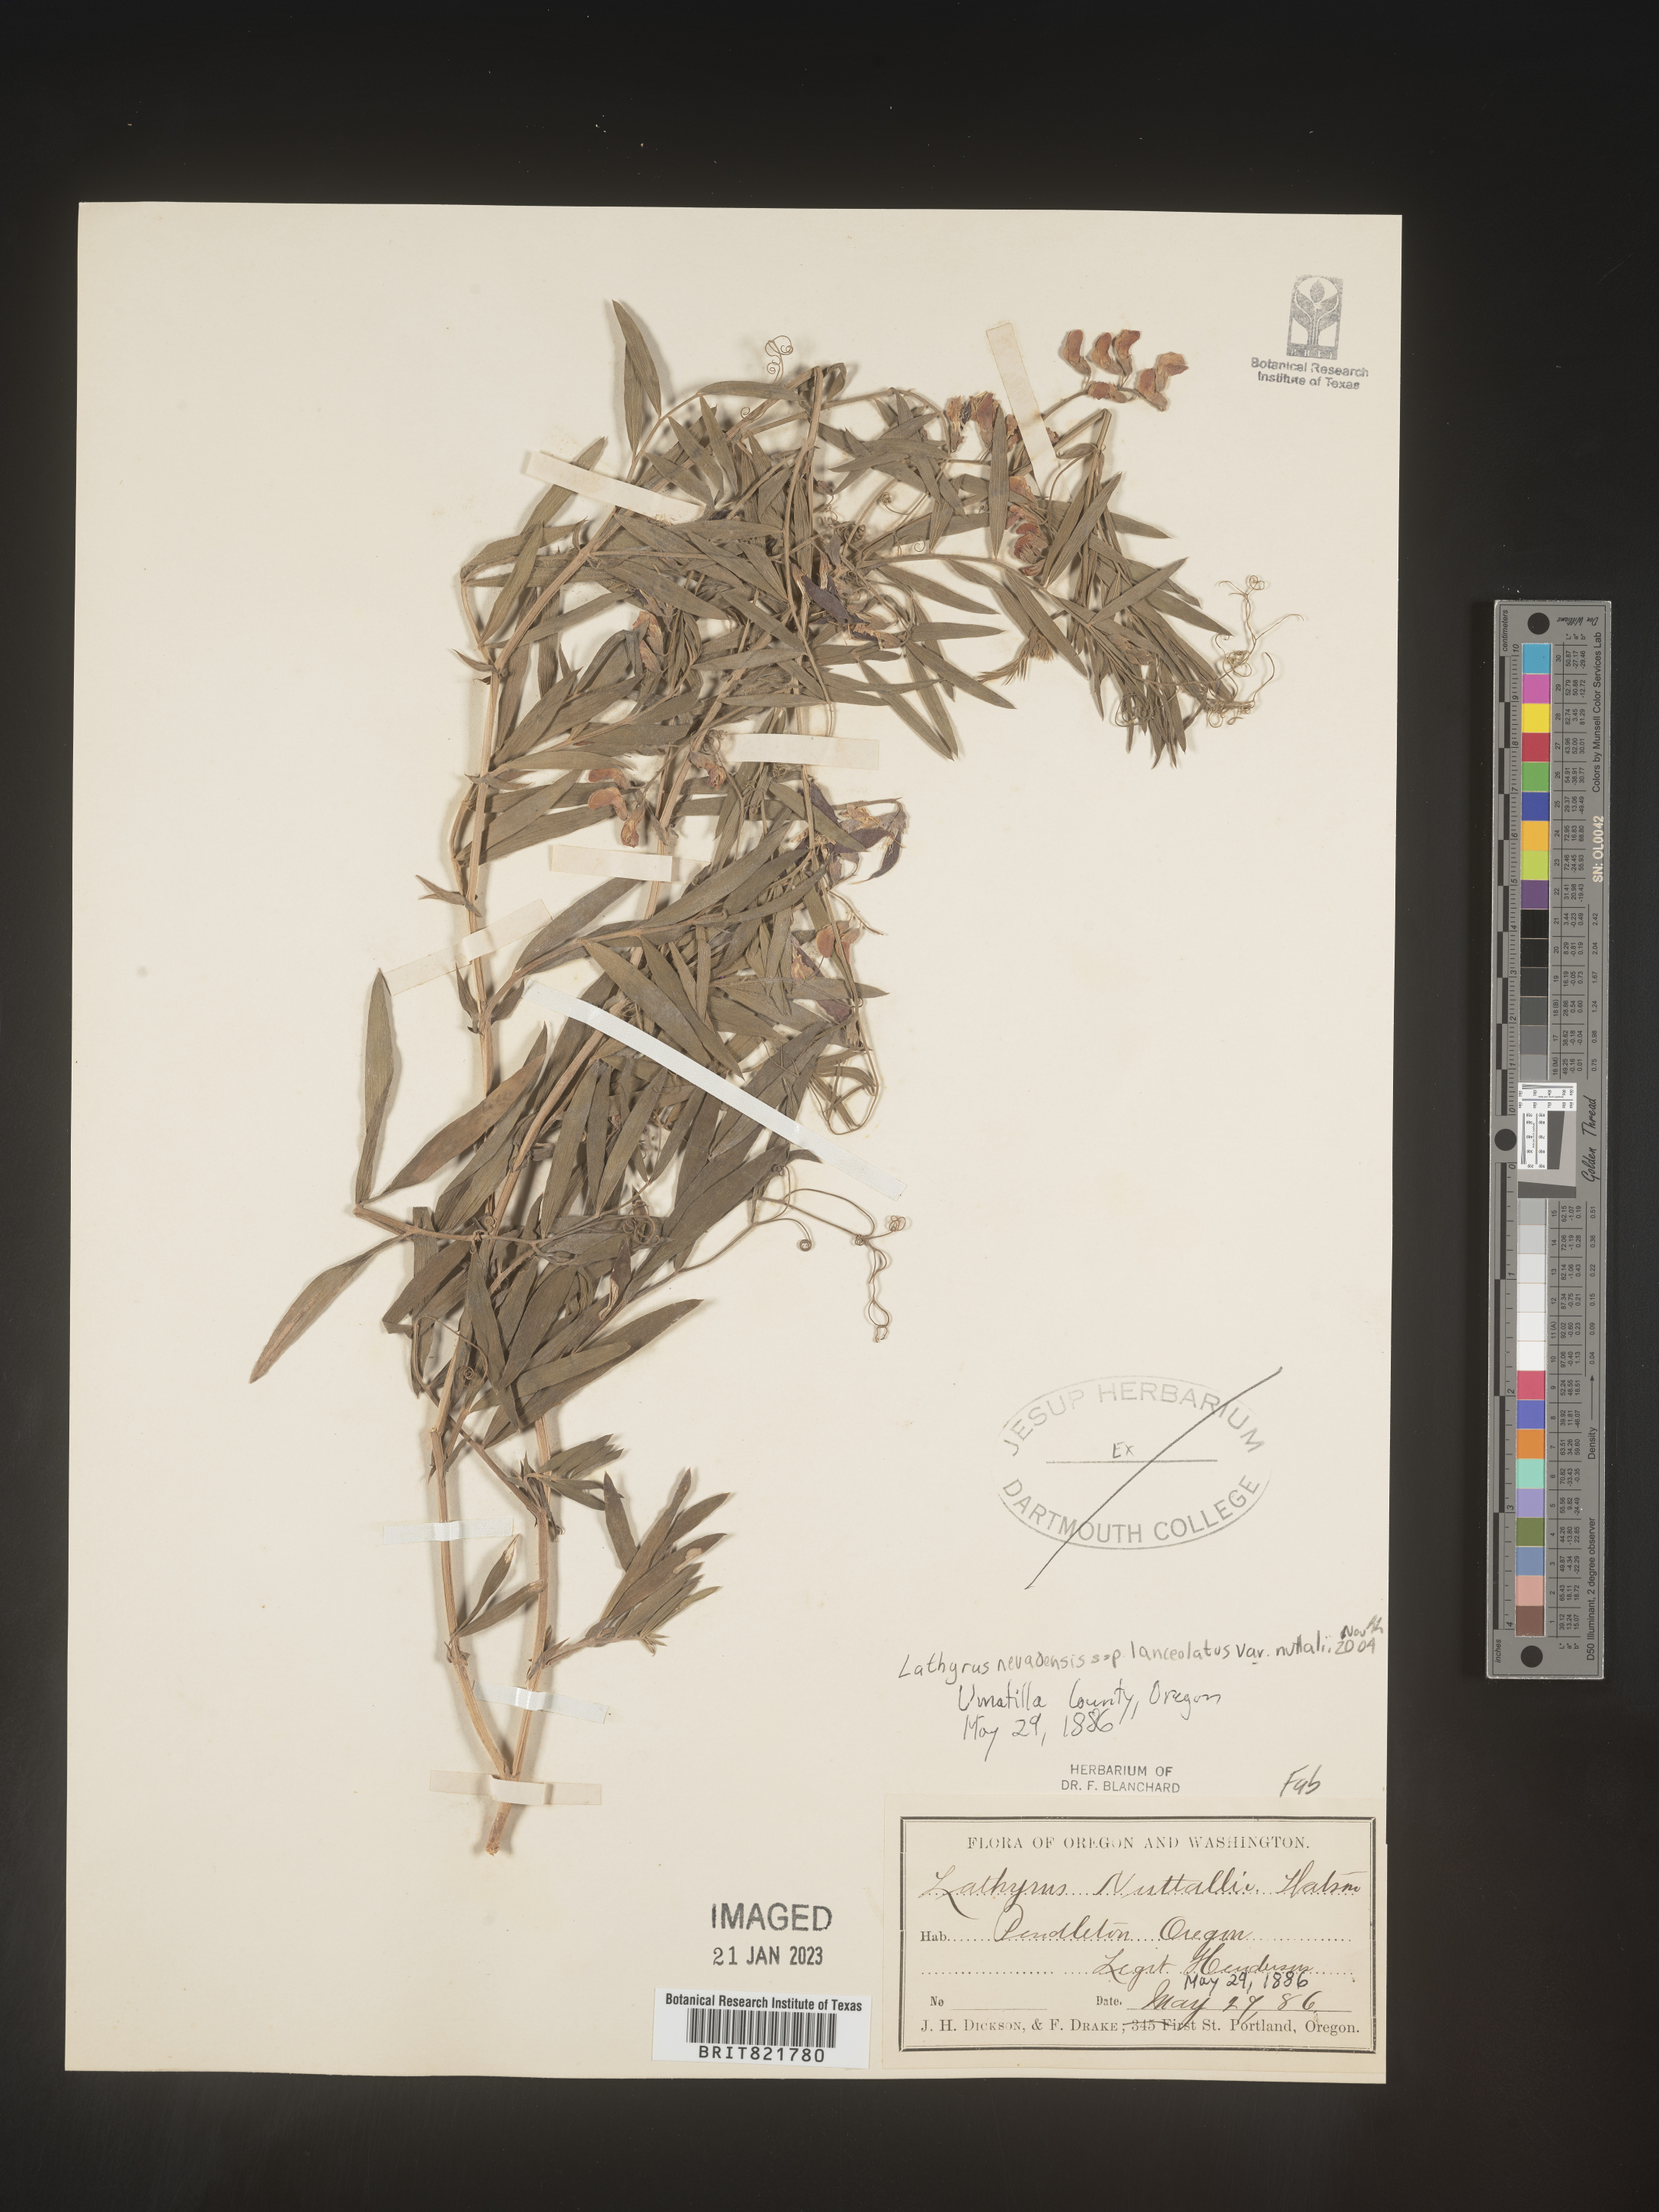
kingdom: Plantae
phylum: Tracheophyta
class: Magnoliopsida
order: Fabales
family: Fabaceae
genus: Lathyrus
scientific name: Lathyrus
